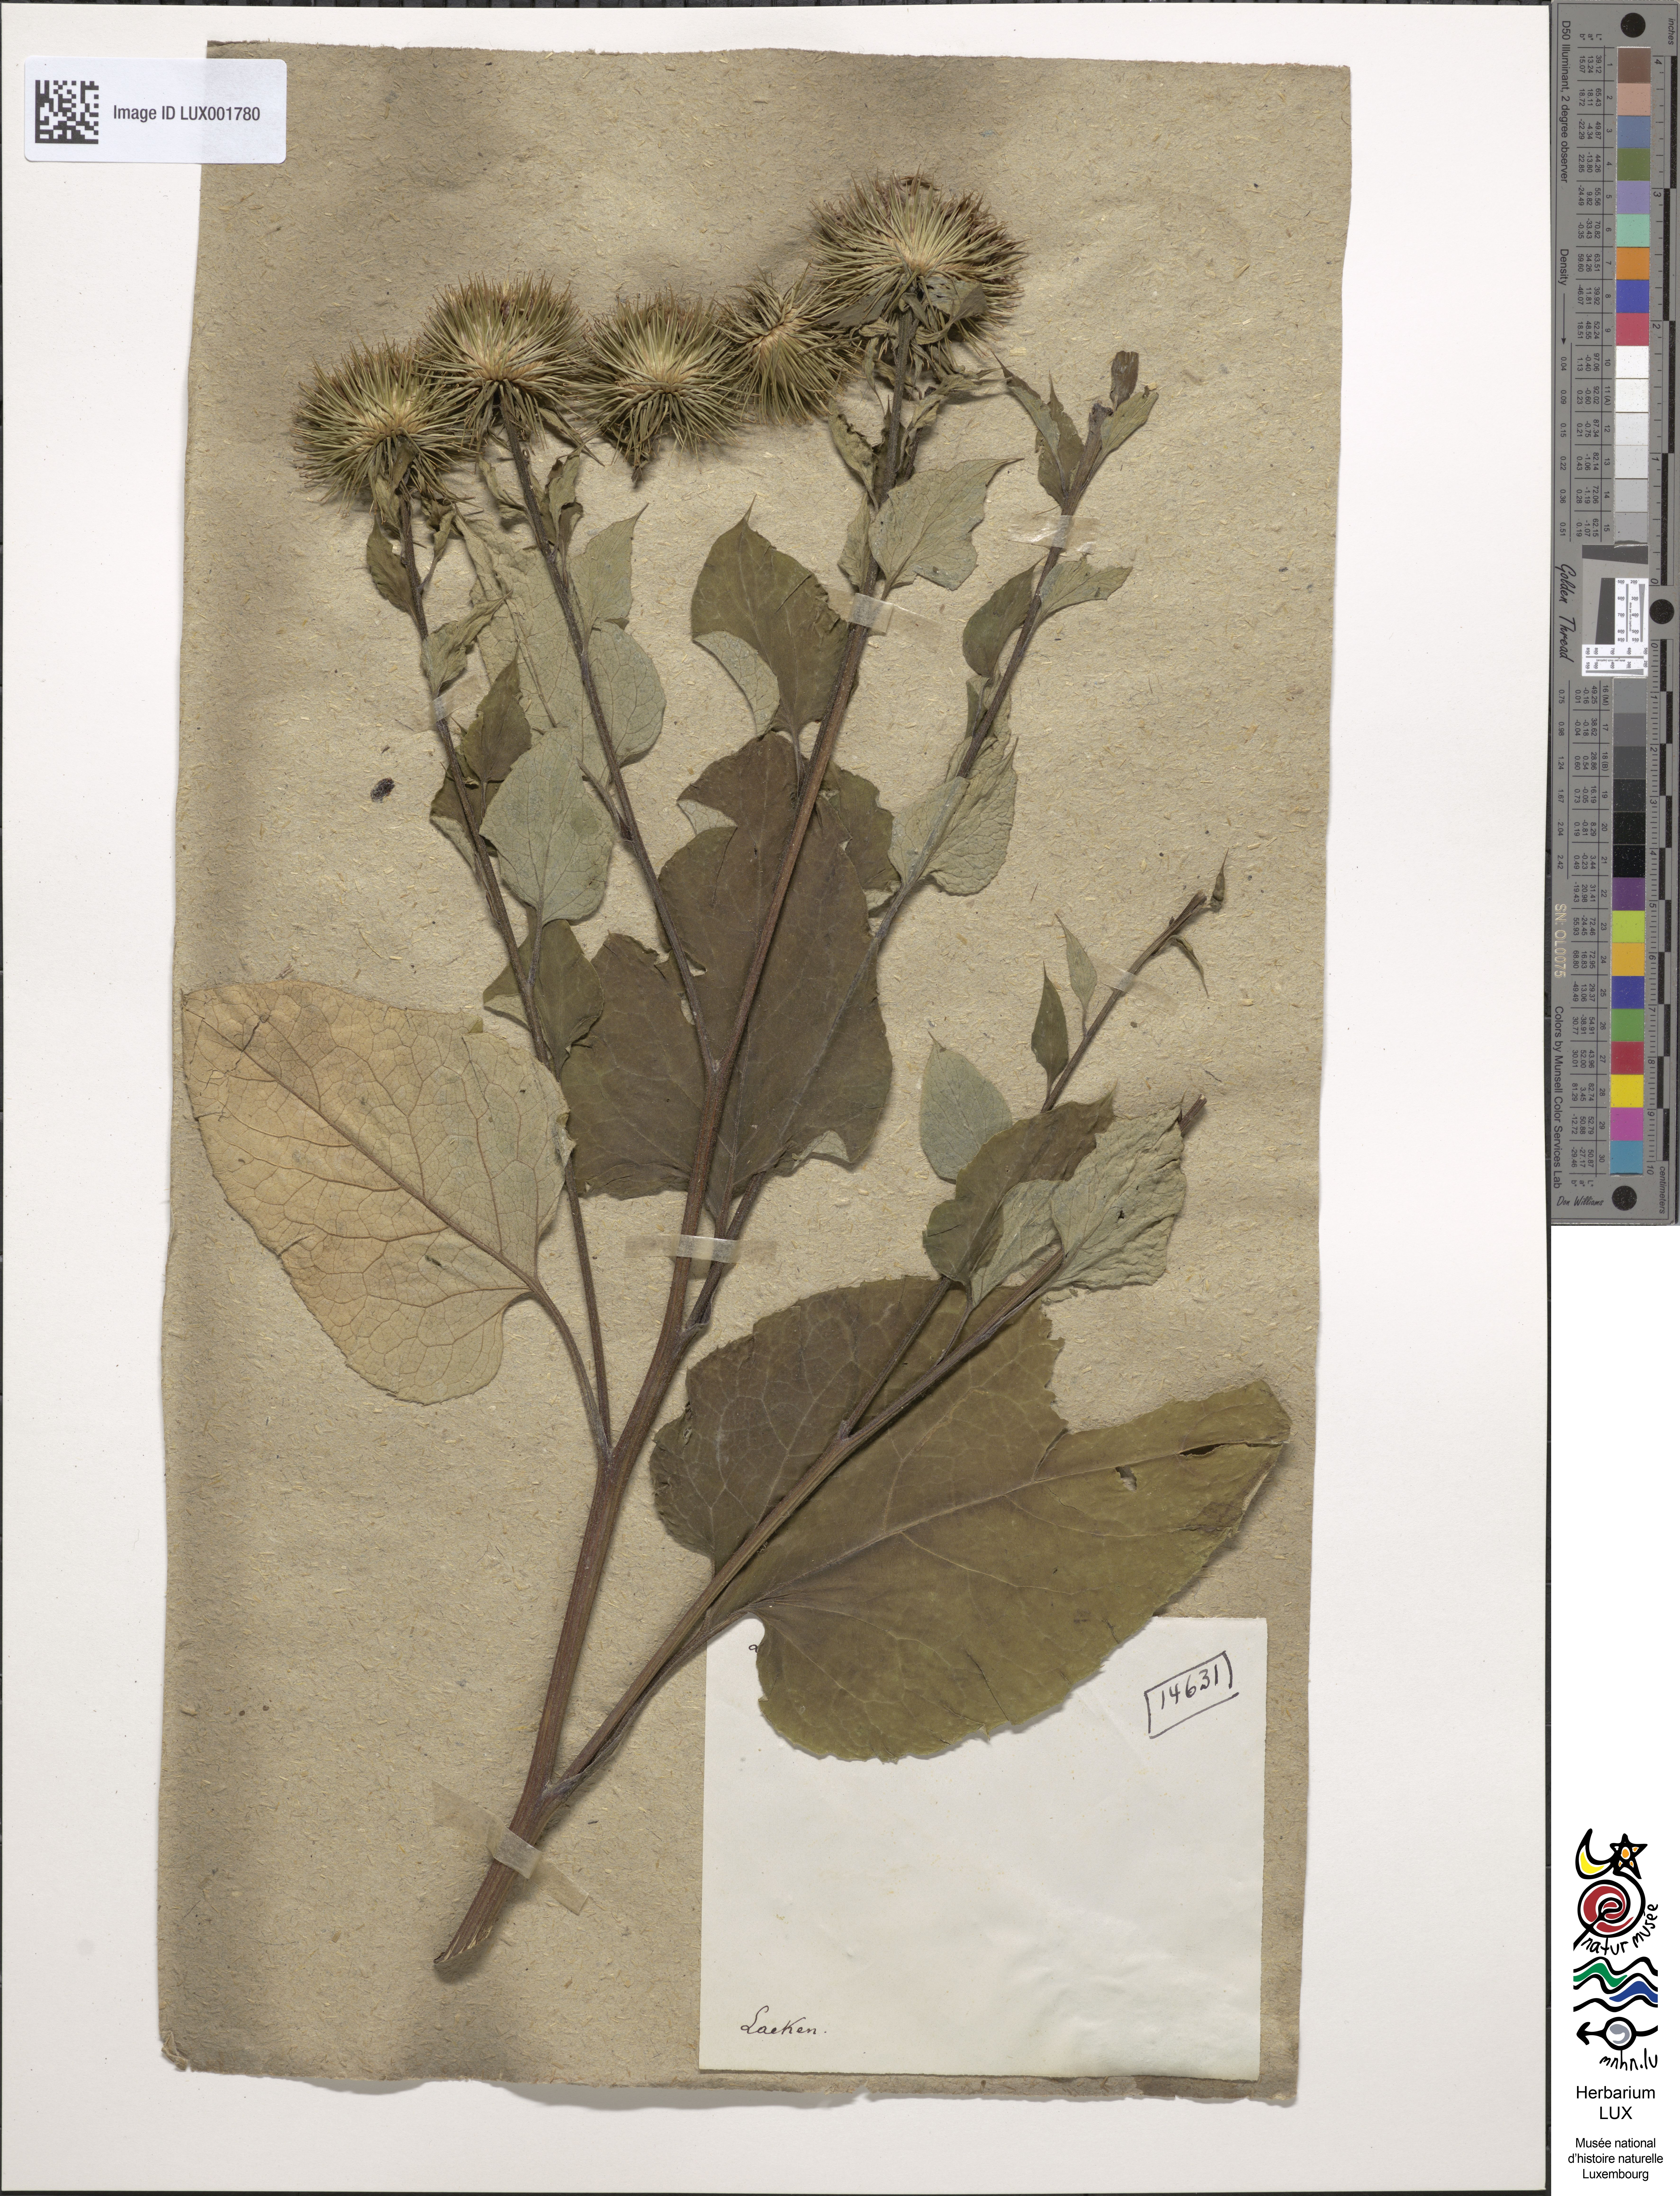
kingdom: Plantae
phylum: Tracheophyta
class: Magnoliopsida
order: Asterales
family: Asteraceae
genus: Arctium
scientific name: Arctium lappa
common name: Greater burdock
